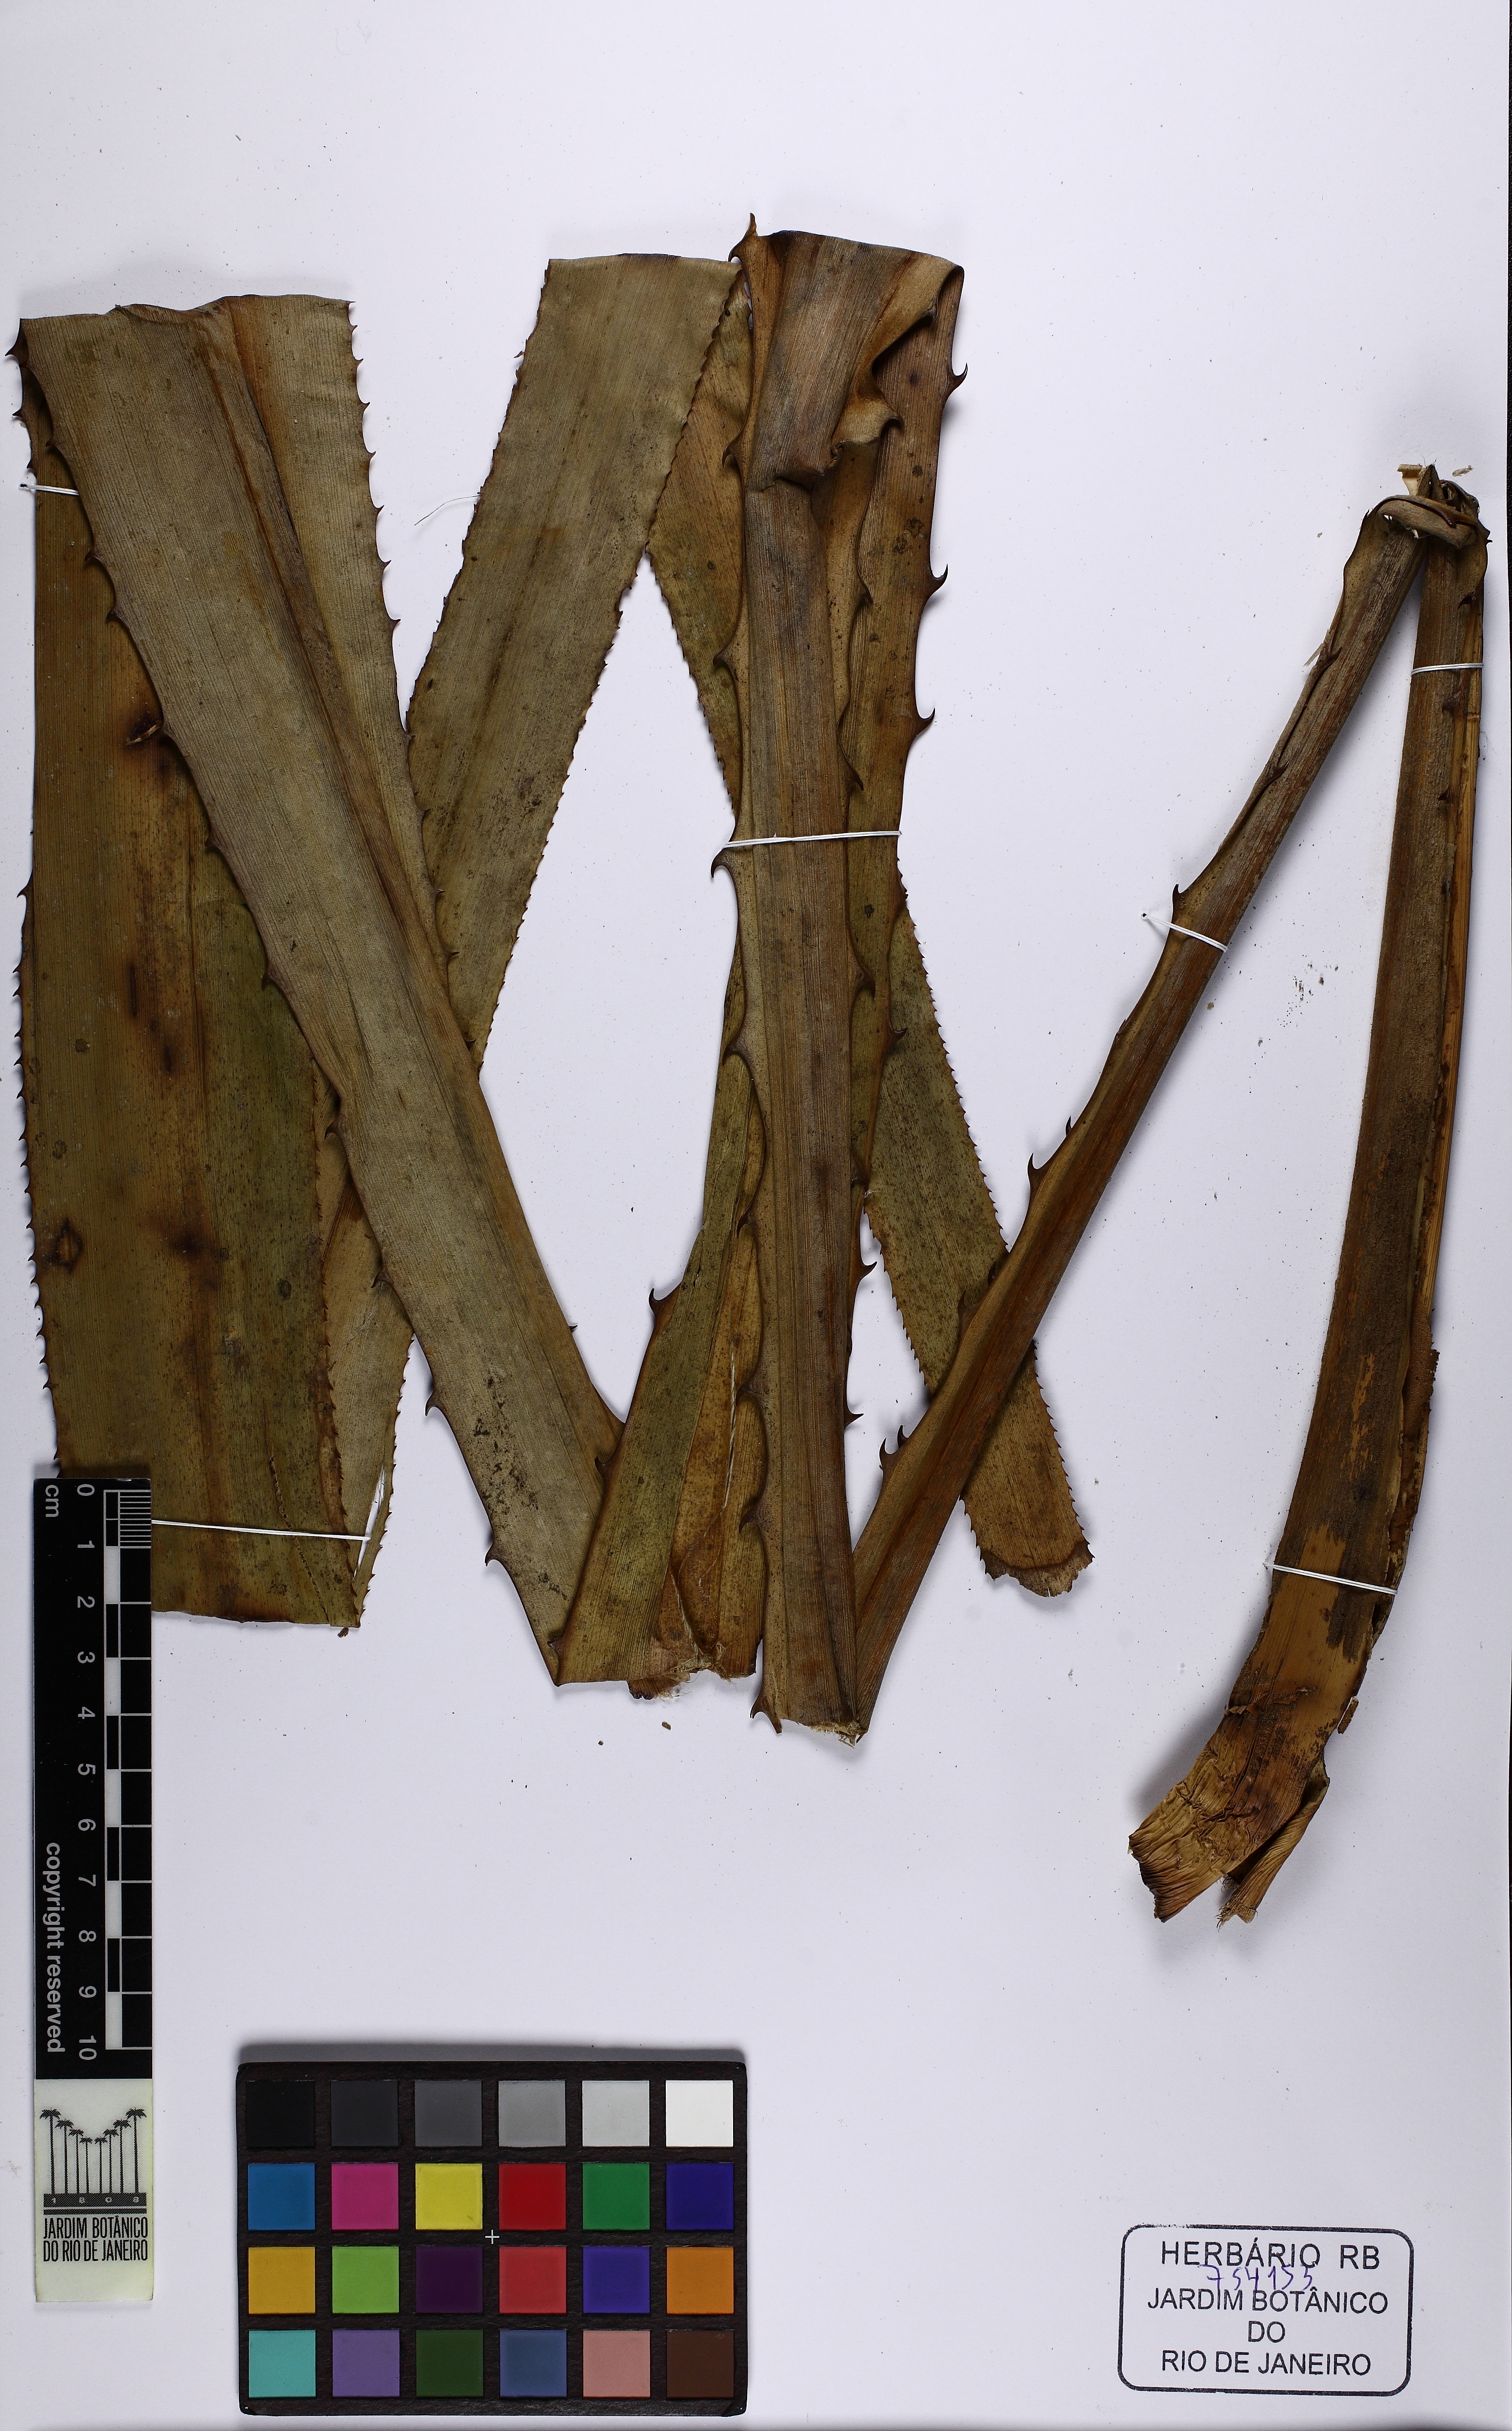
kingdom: Plantae
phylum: Tracheophyta
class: Liliopsida
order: Poales
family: Bromeliaceae
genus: Aechmea
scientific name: Aechmea fernandae
